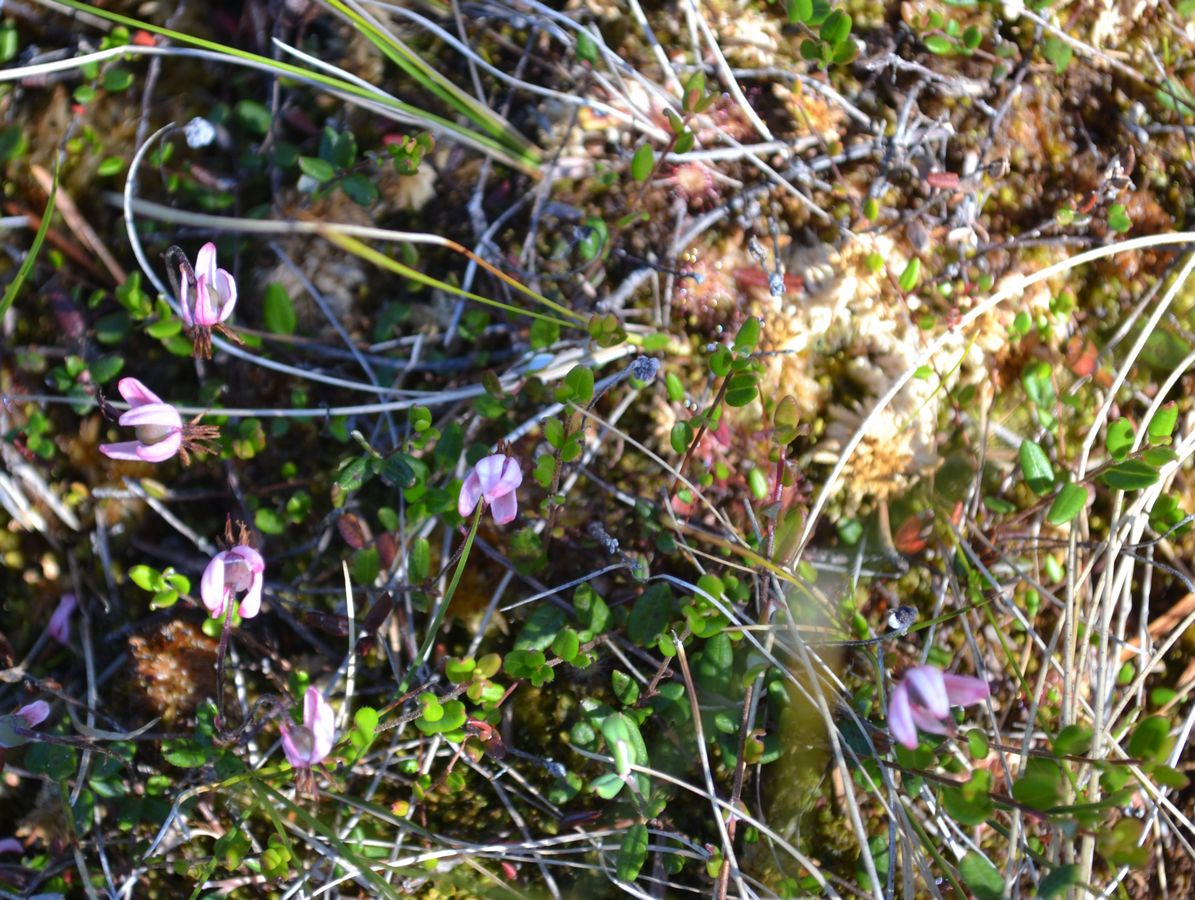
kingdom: Plantae
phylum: Tracheophyta
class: Magnoliopsida
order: Ericales
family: Ericaceae
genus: Vaccinium
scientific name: Vaccinium oxycoccos
